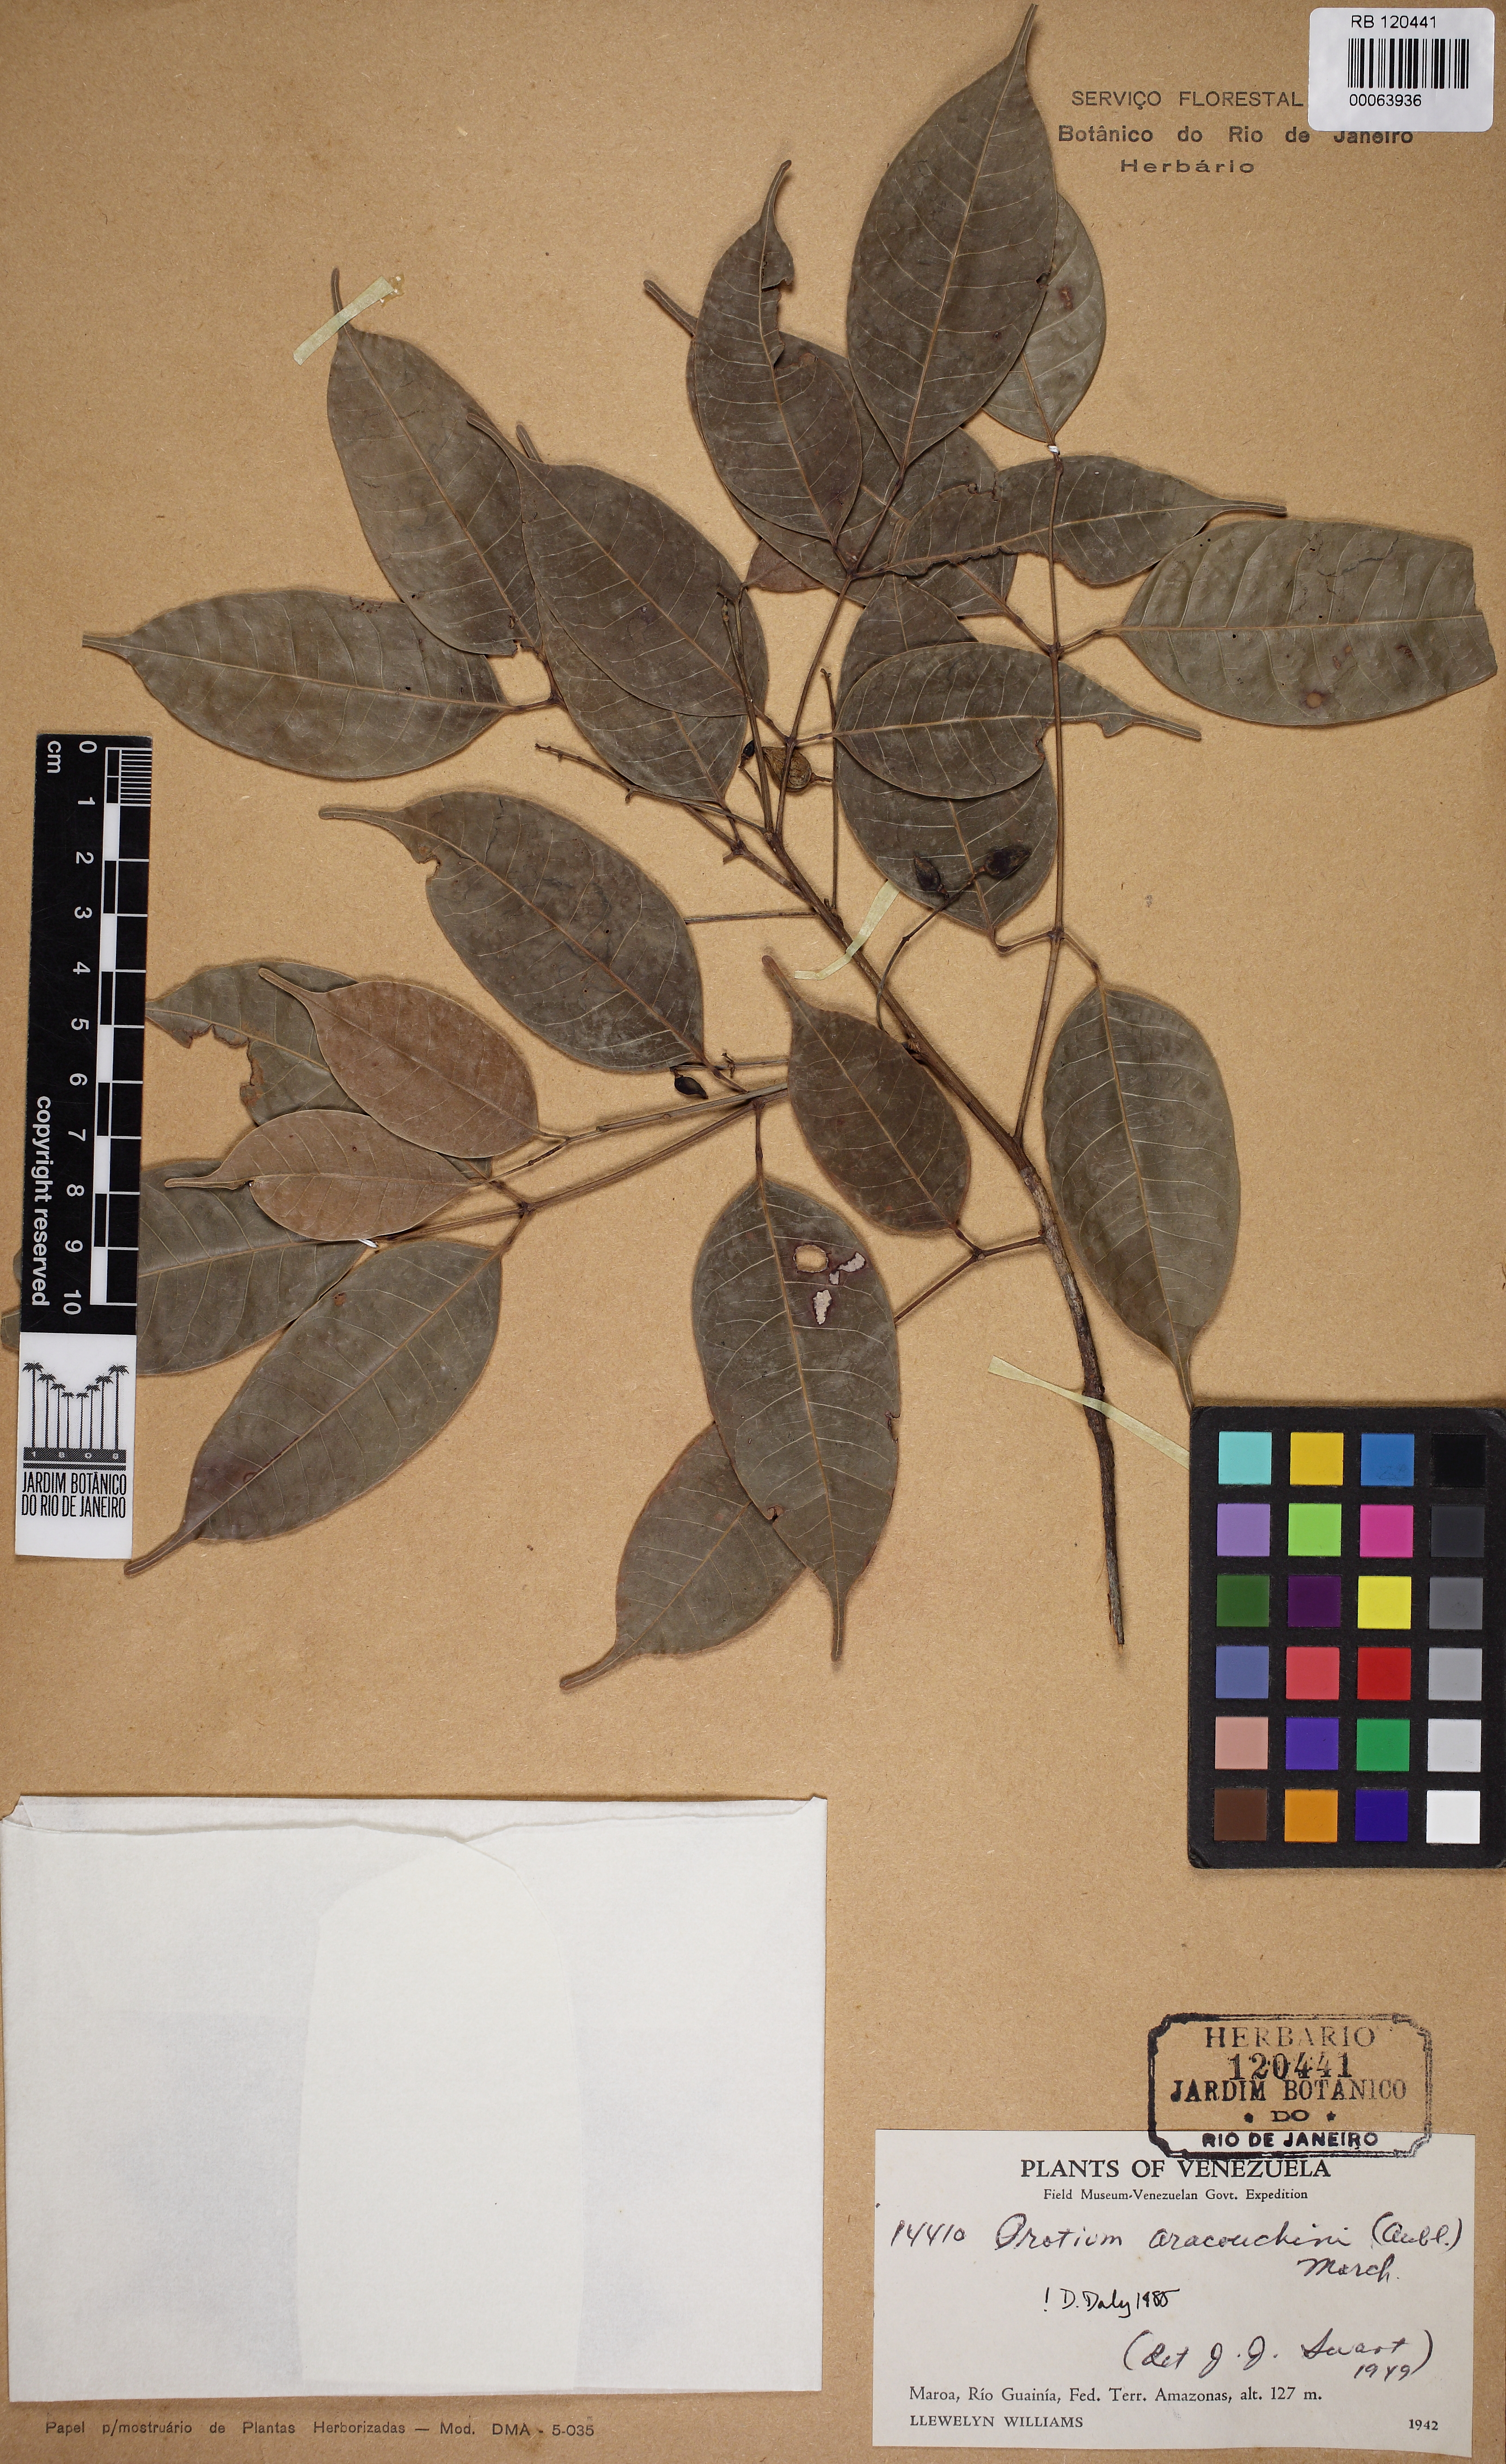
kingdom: Plantae
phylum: Tracheophyta
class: Magnoliopsida
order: Sapindales
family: Burseraceae
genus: Protium
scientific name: Protium aracouchini
